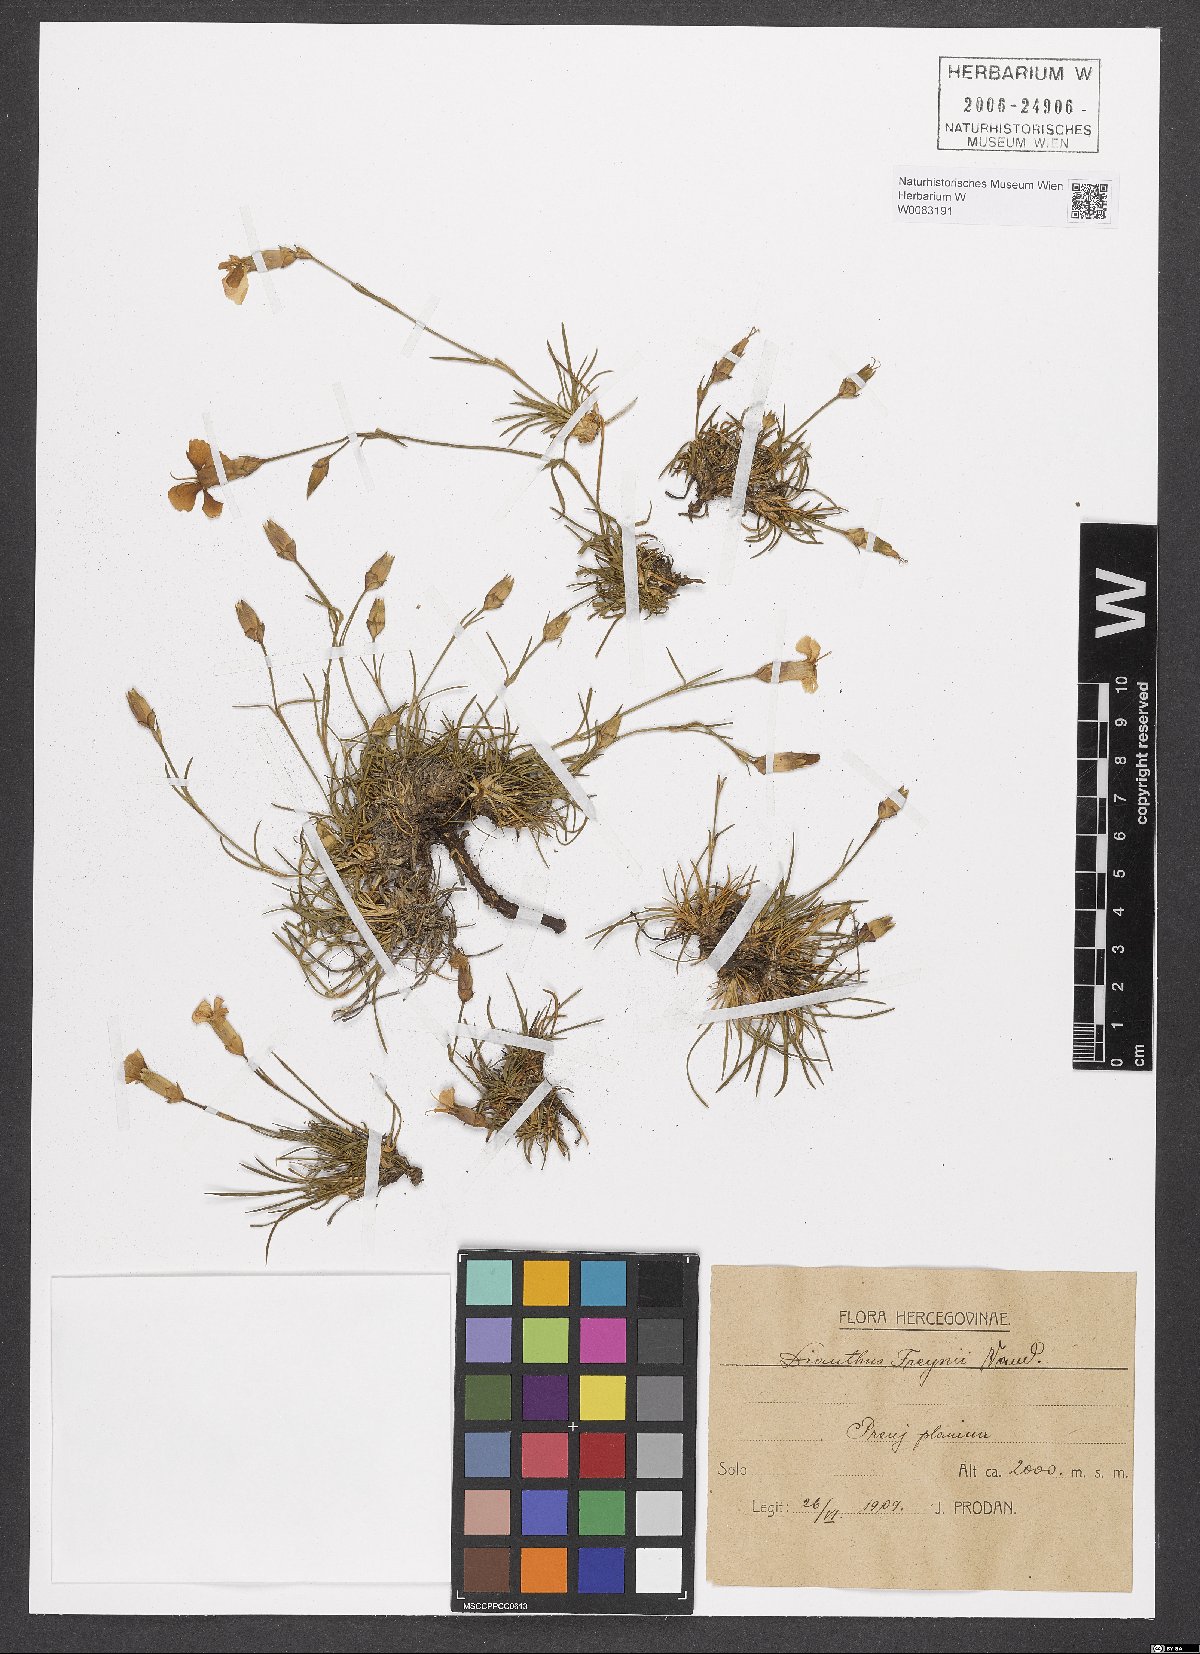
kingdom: Plantae
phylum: Tracheophyta
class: Magnoliopsida
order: Caryophyllales
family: Caryophyllaceae
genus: Dianthus
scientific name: Dianthus freynii
